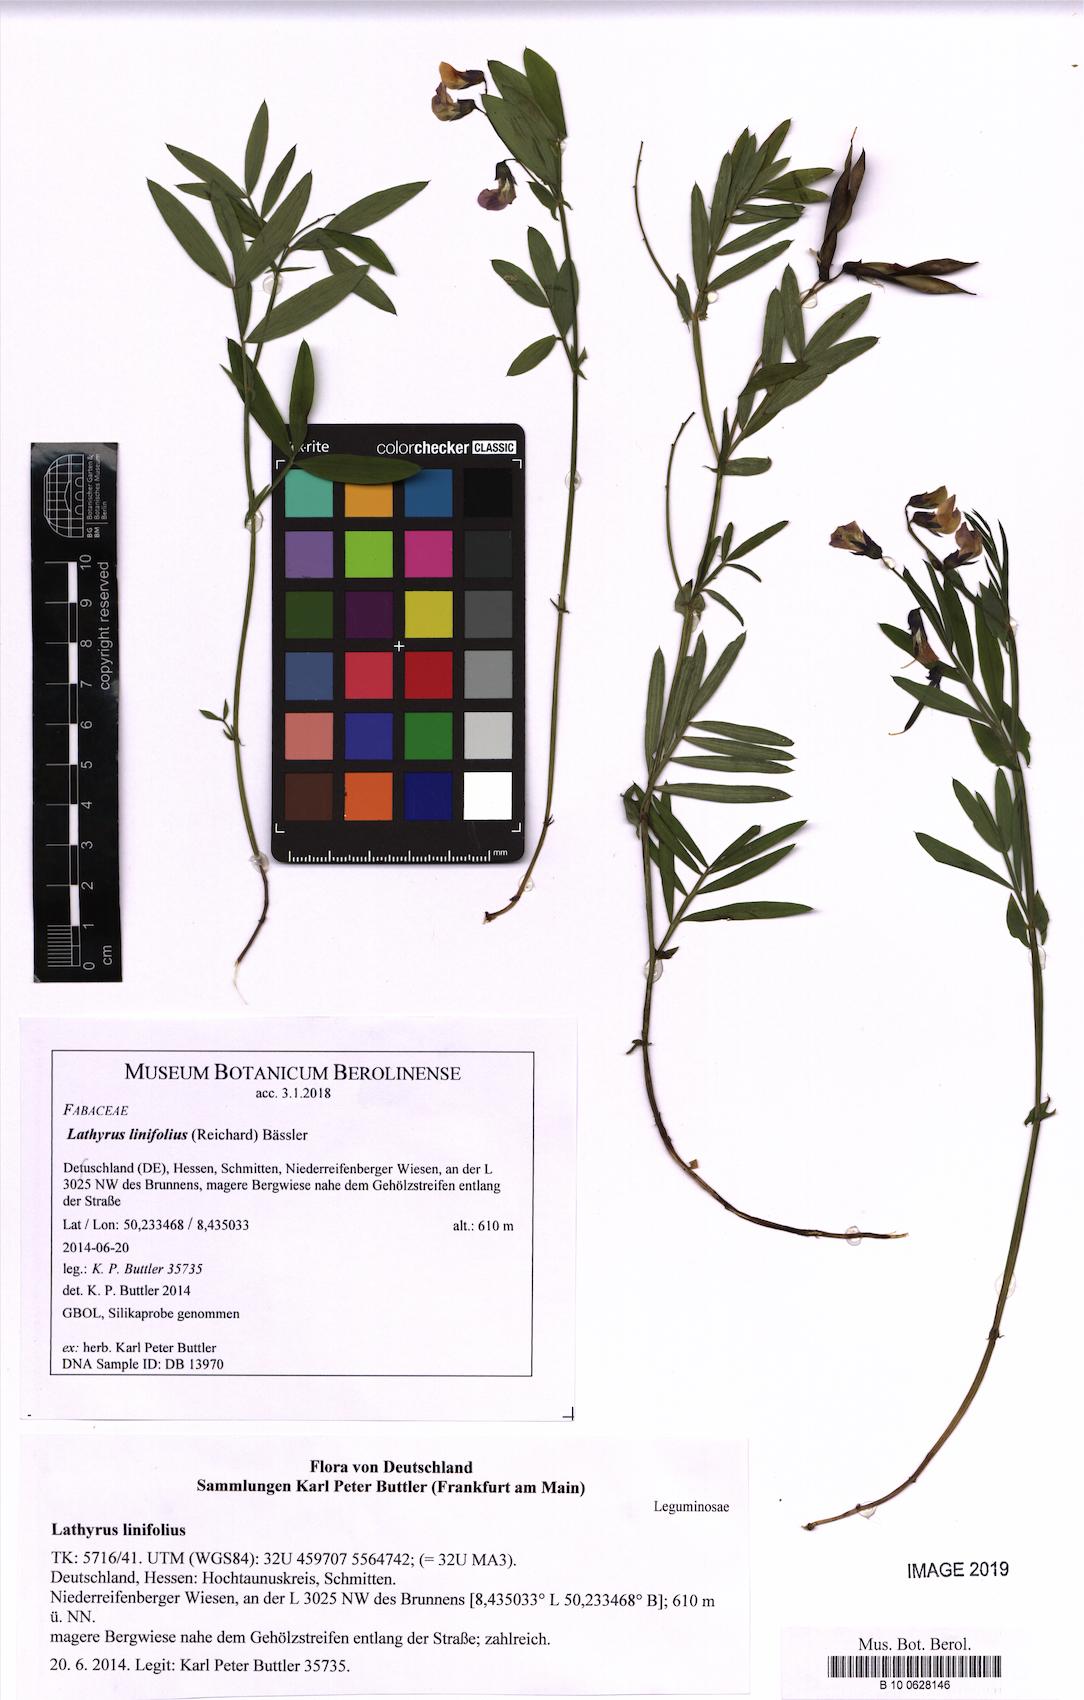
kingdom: Plantae
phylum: Tracheophyta
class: Magnoliopsida
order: Fabales
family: Fabaceae
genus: Lathyrus
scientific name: Lathyrus linifolius
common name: Bitter-vetch
